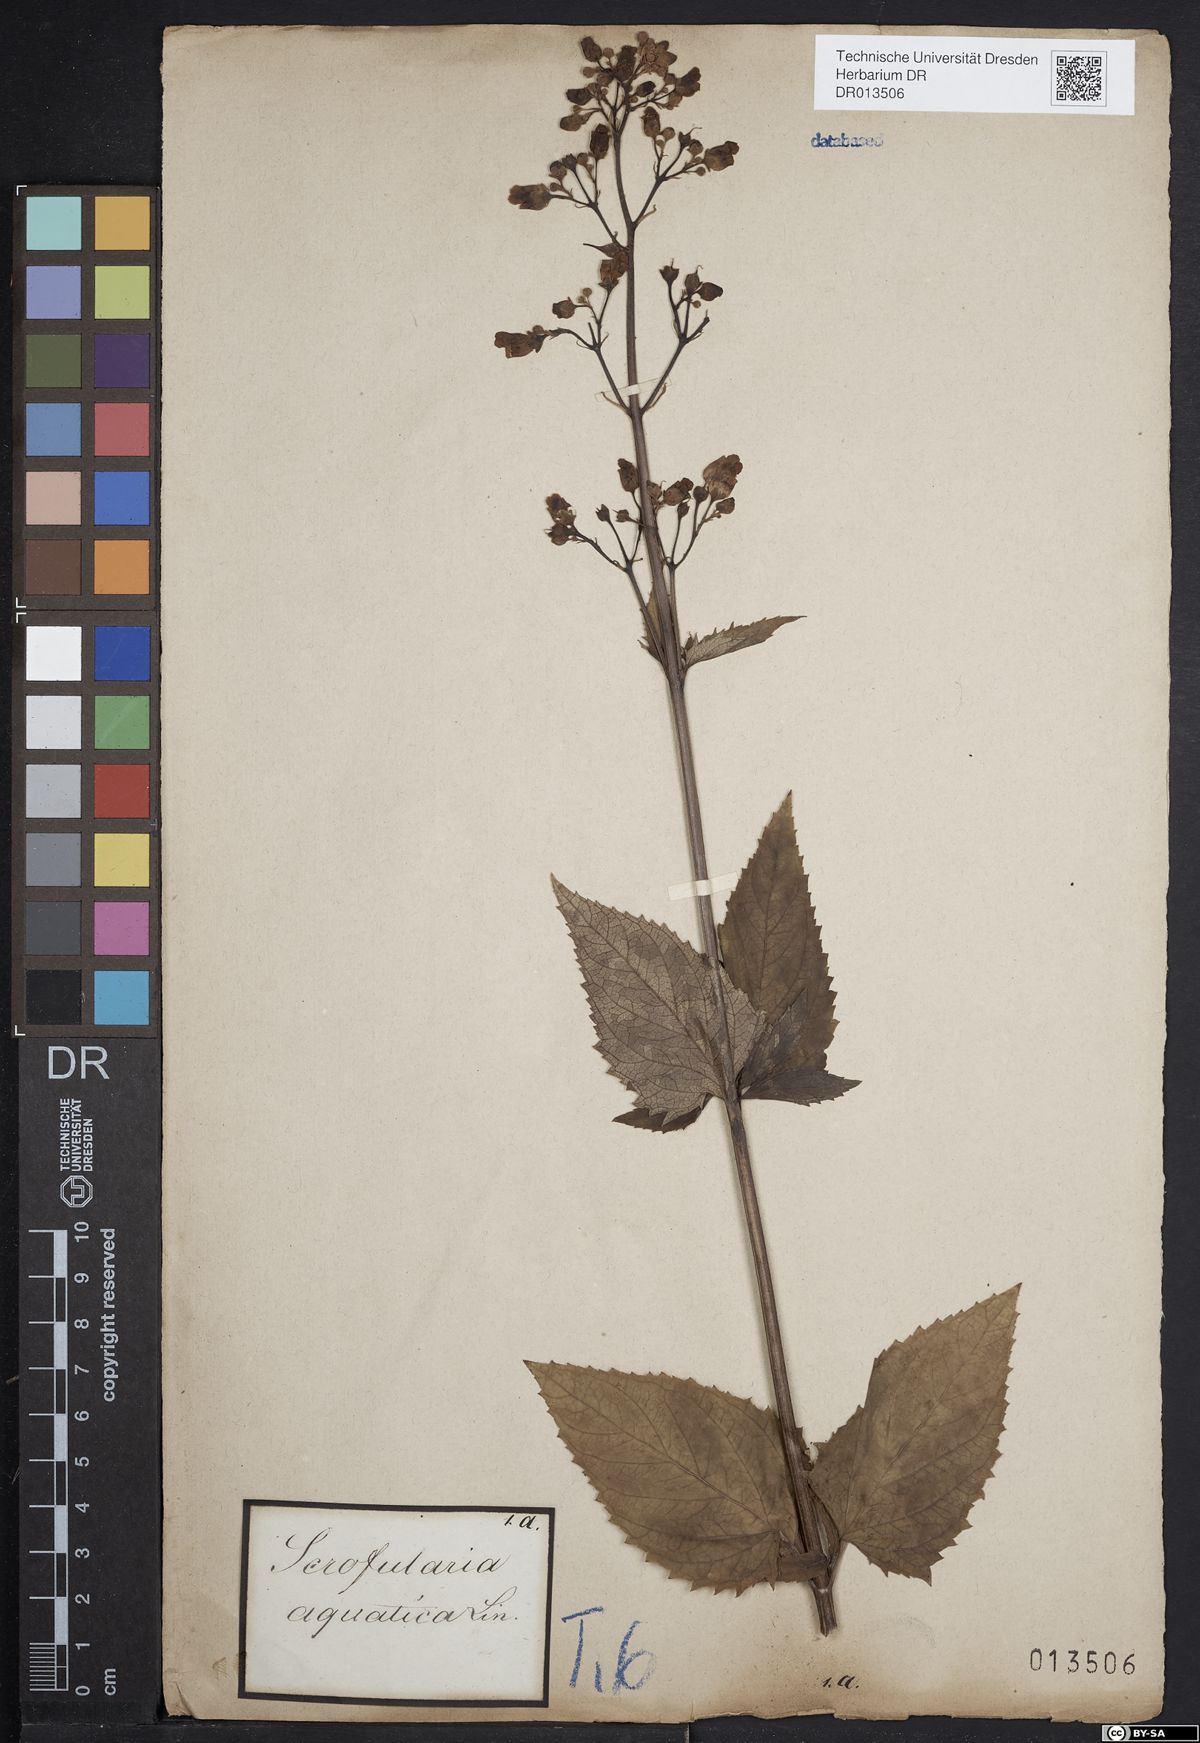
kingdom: Plantae
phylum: Tracheophyta
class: Magnoliopsida
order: Lamiales
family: Scrophulariaceae
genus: Scrophularia
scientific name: Scrophularia nodosa
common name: Common figwort
